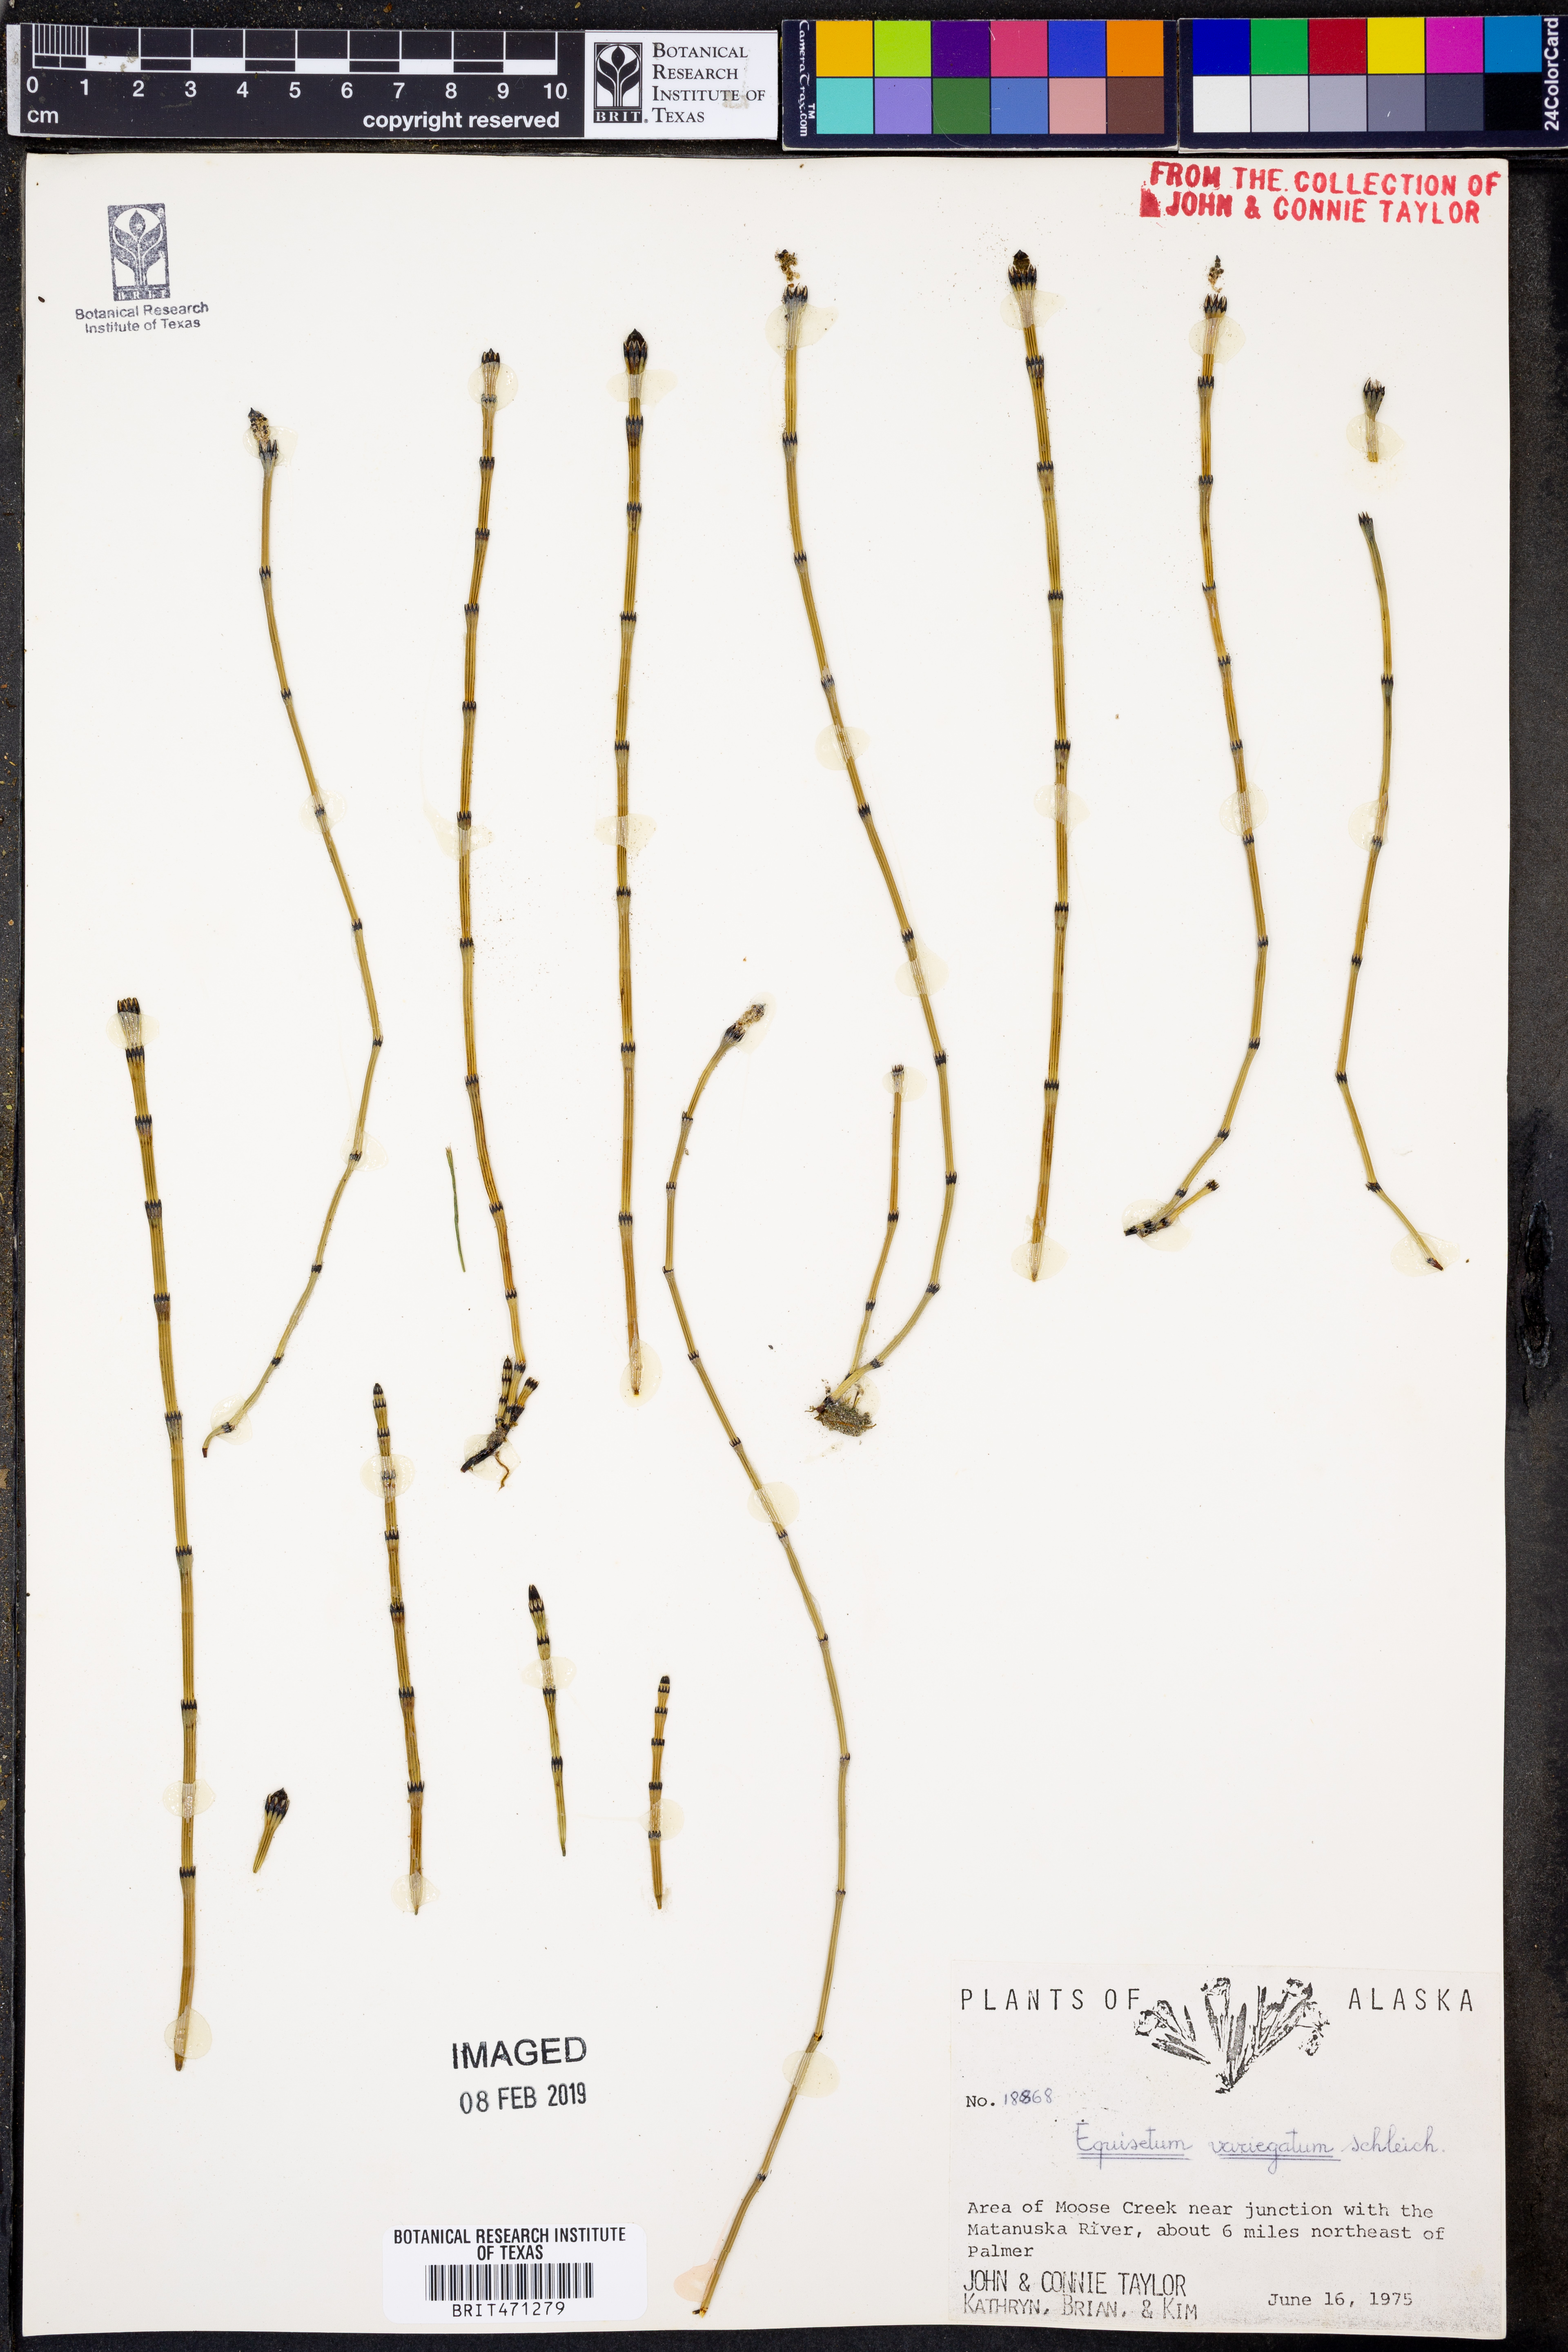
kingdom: Plantae
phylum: Tracheophyta
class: Polypodiopsida
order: Equisetales
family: Equisetaceae
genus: Equisetum
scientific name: Equisetum variegatum
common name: Variegated horsetail
